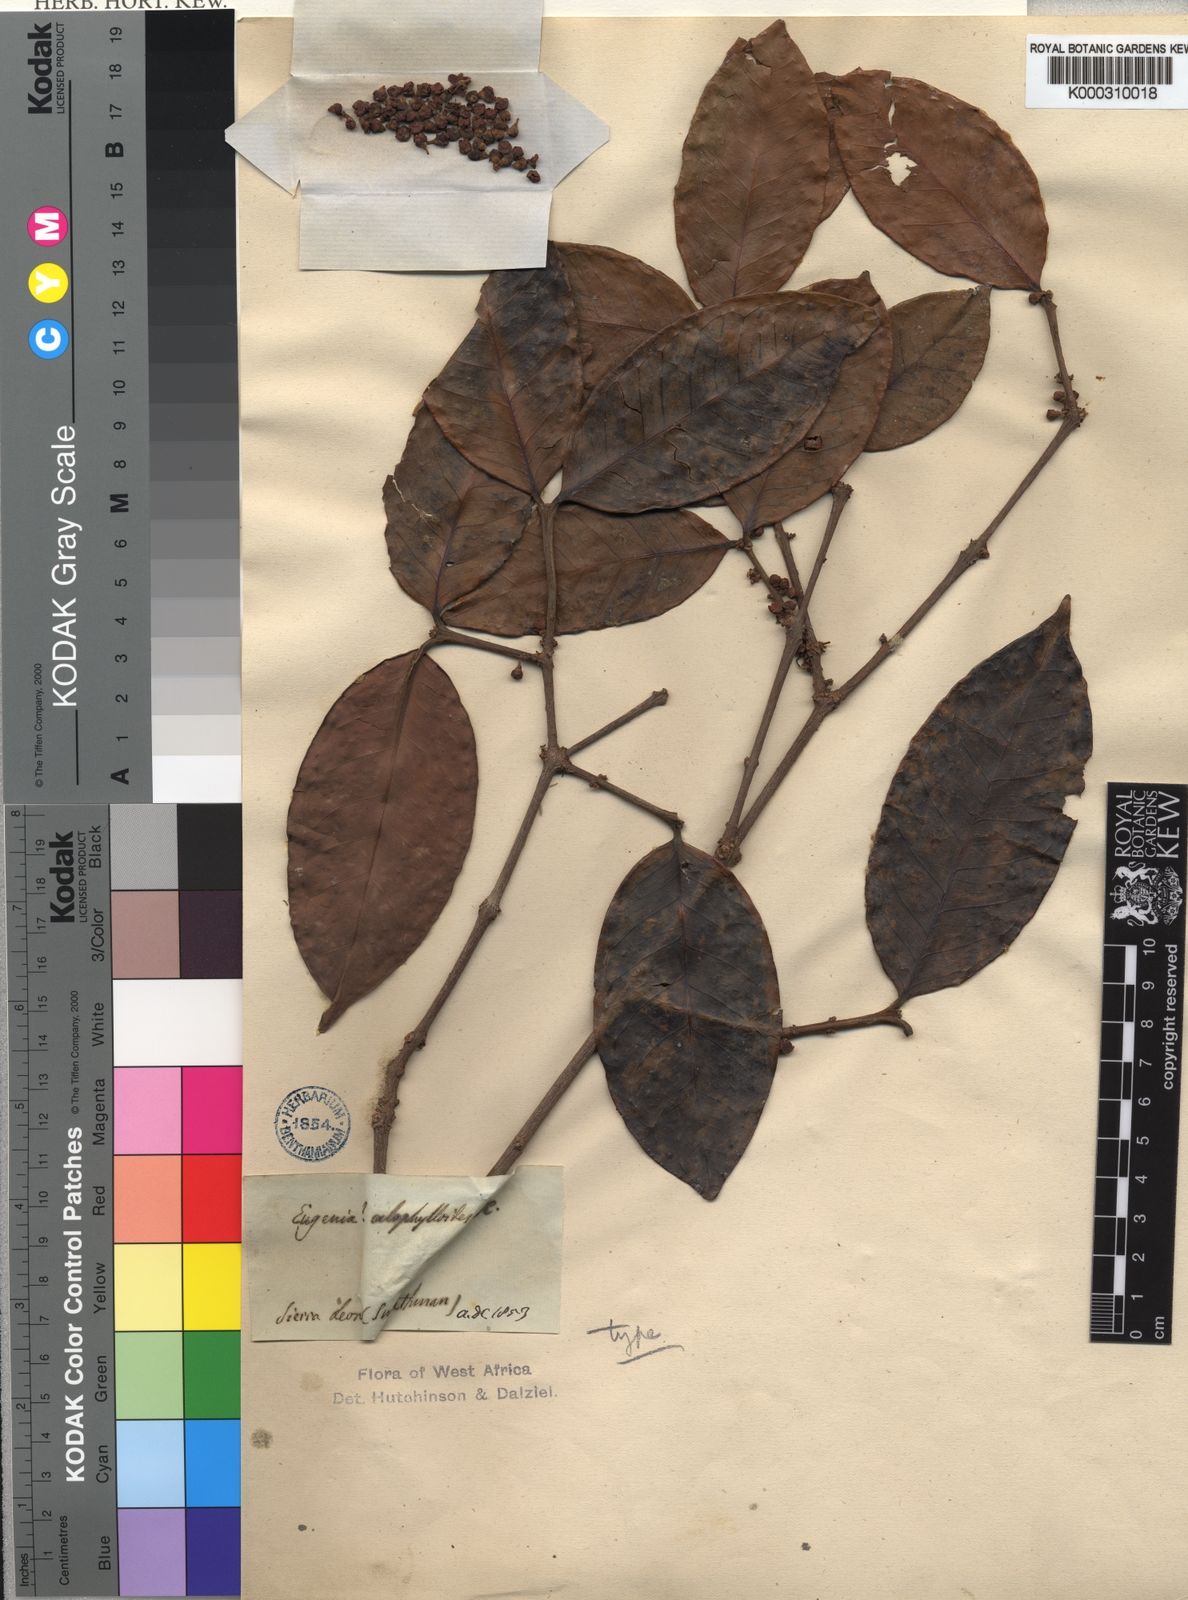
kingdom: Plantae
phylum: Tracheophyta
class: Magnoliopsida
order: Myrtales
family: Myrtaceae
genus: Eugenia
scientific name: Eugenia calophylloides
